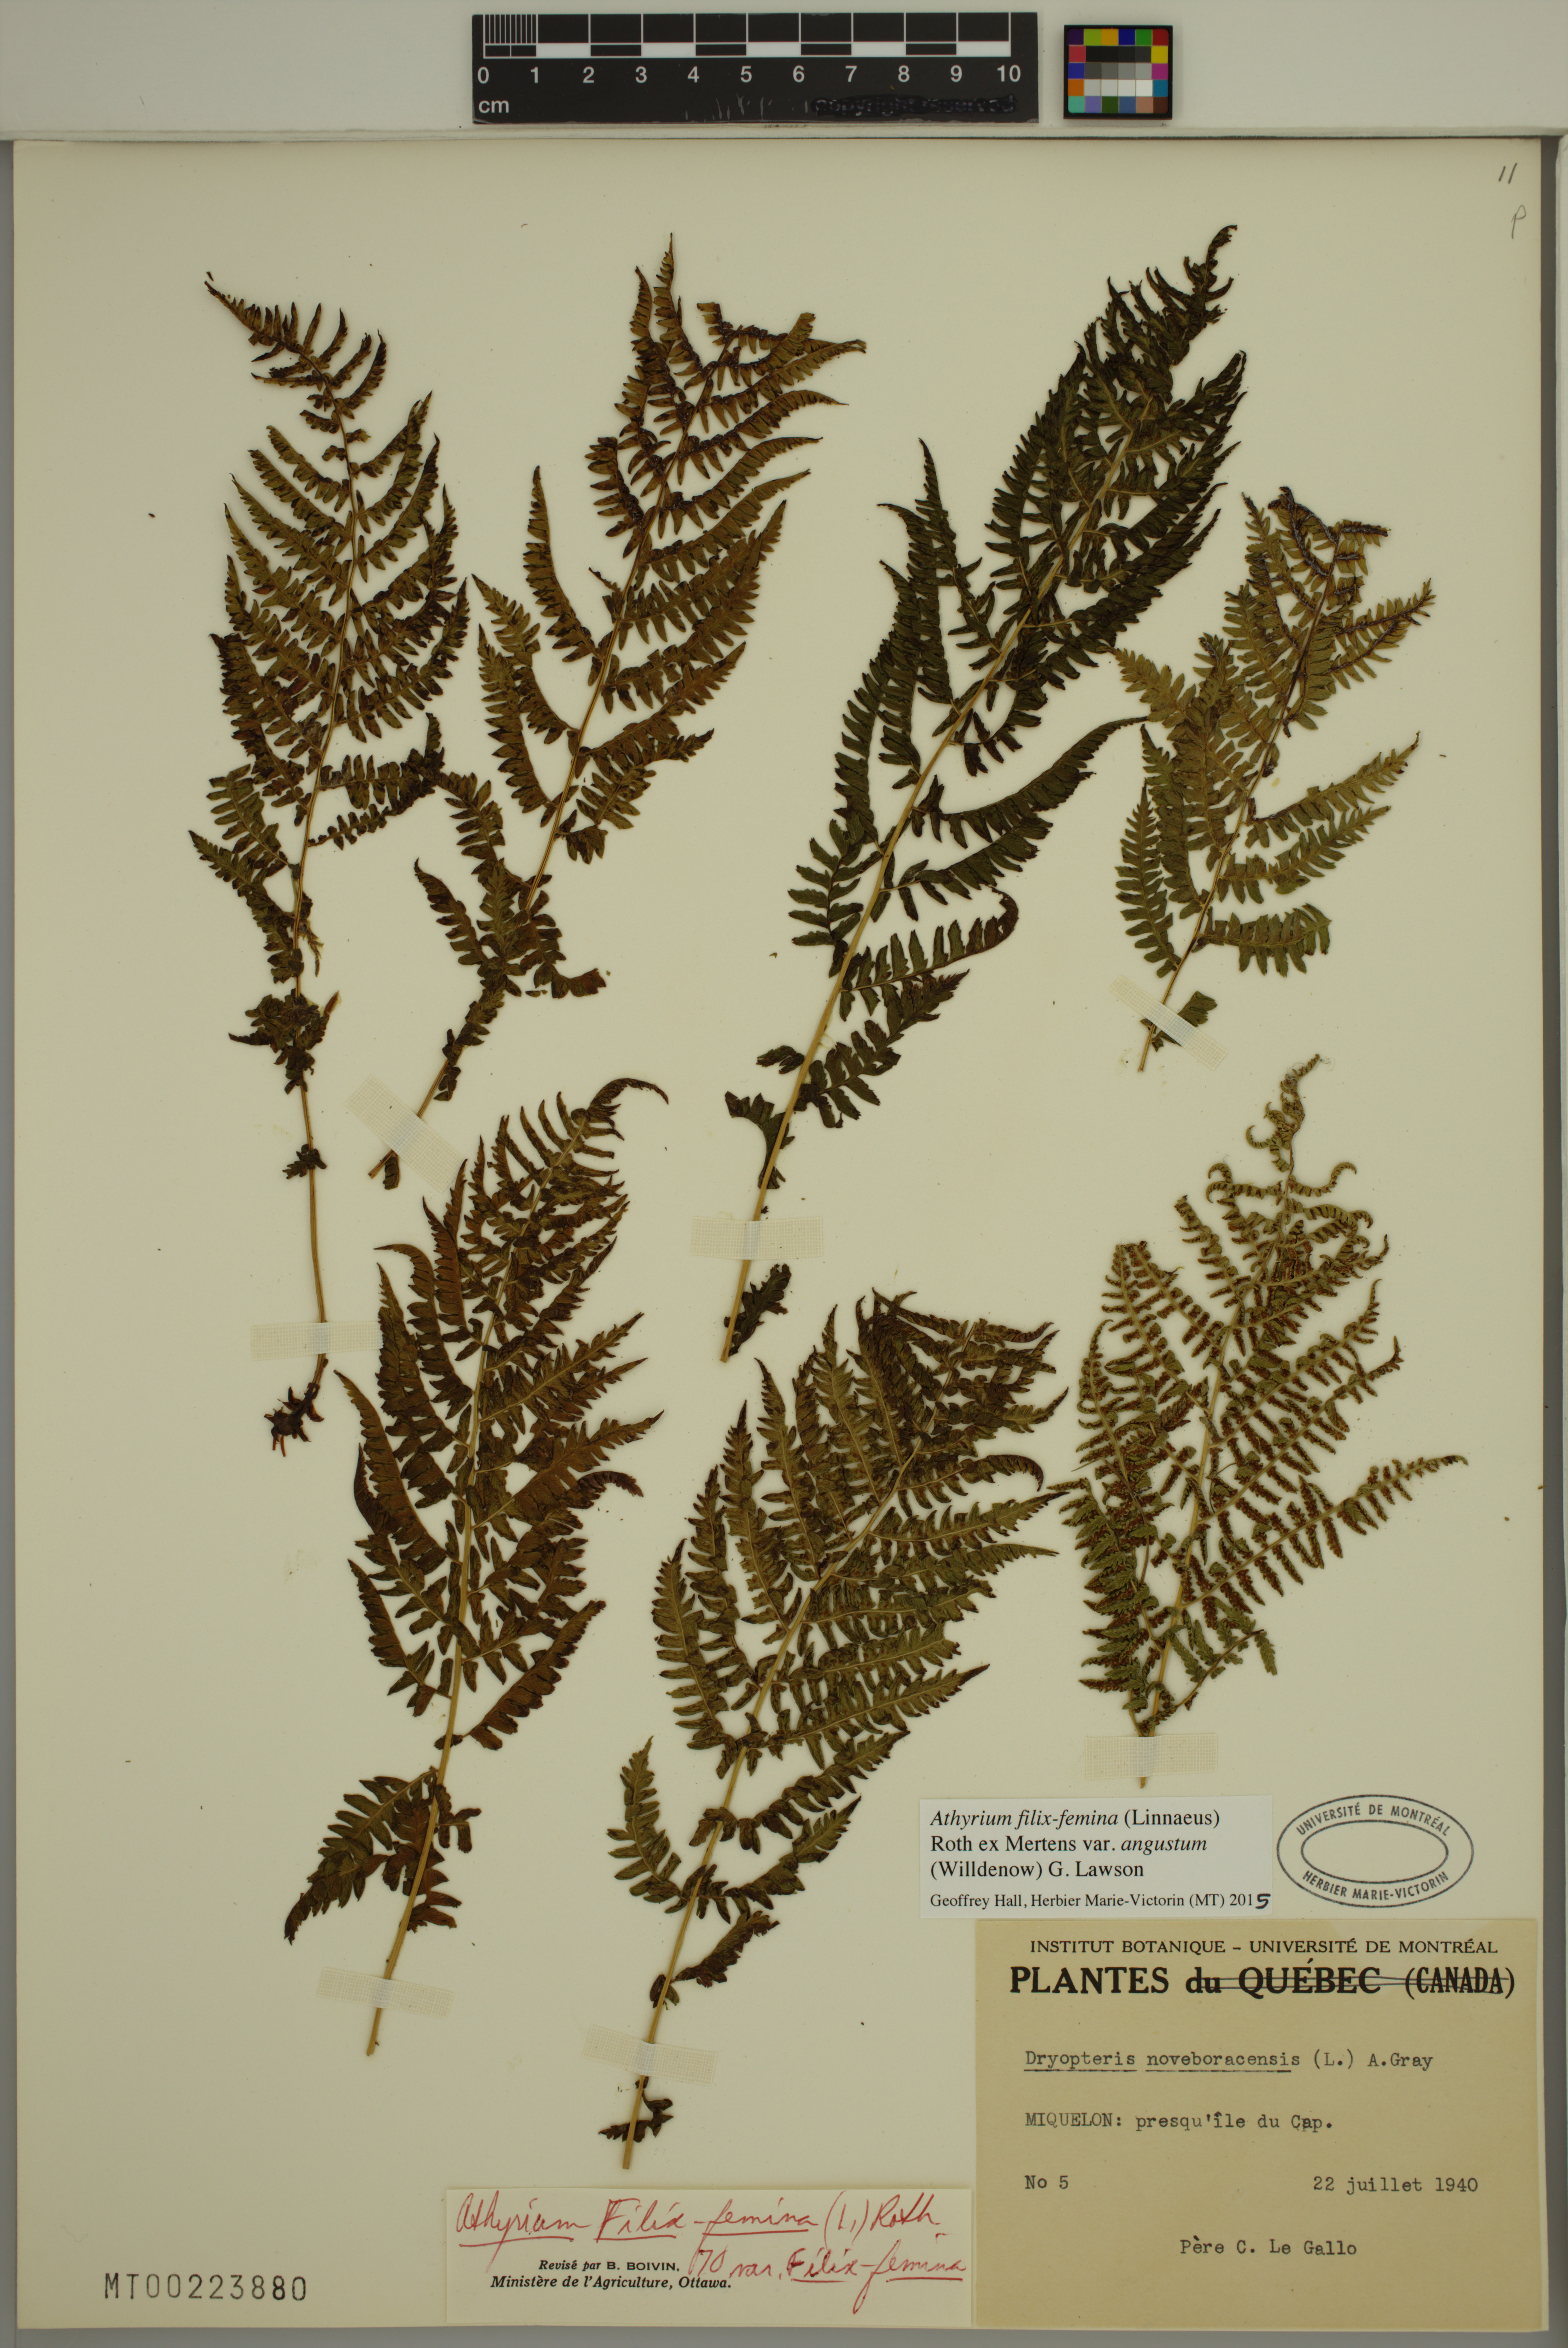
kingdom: Plantae
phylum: Tracheophyta
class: Polypodiopsida
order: Polypodiales
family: Athyriaceae
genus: Athyrium
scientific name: Athyrium angustum
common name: Northern lady fern
